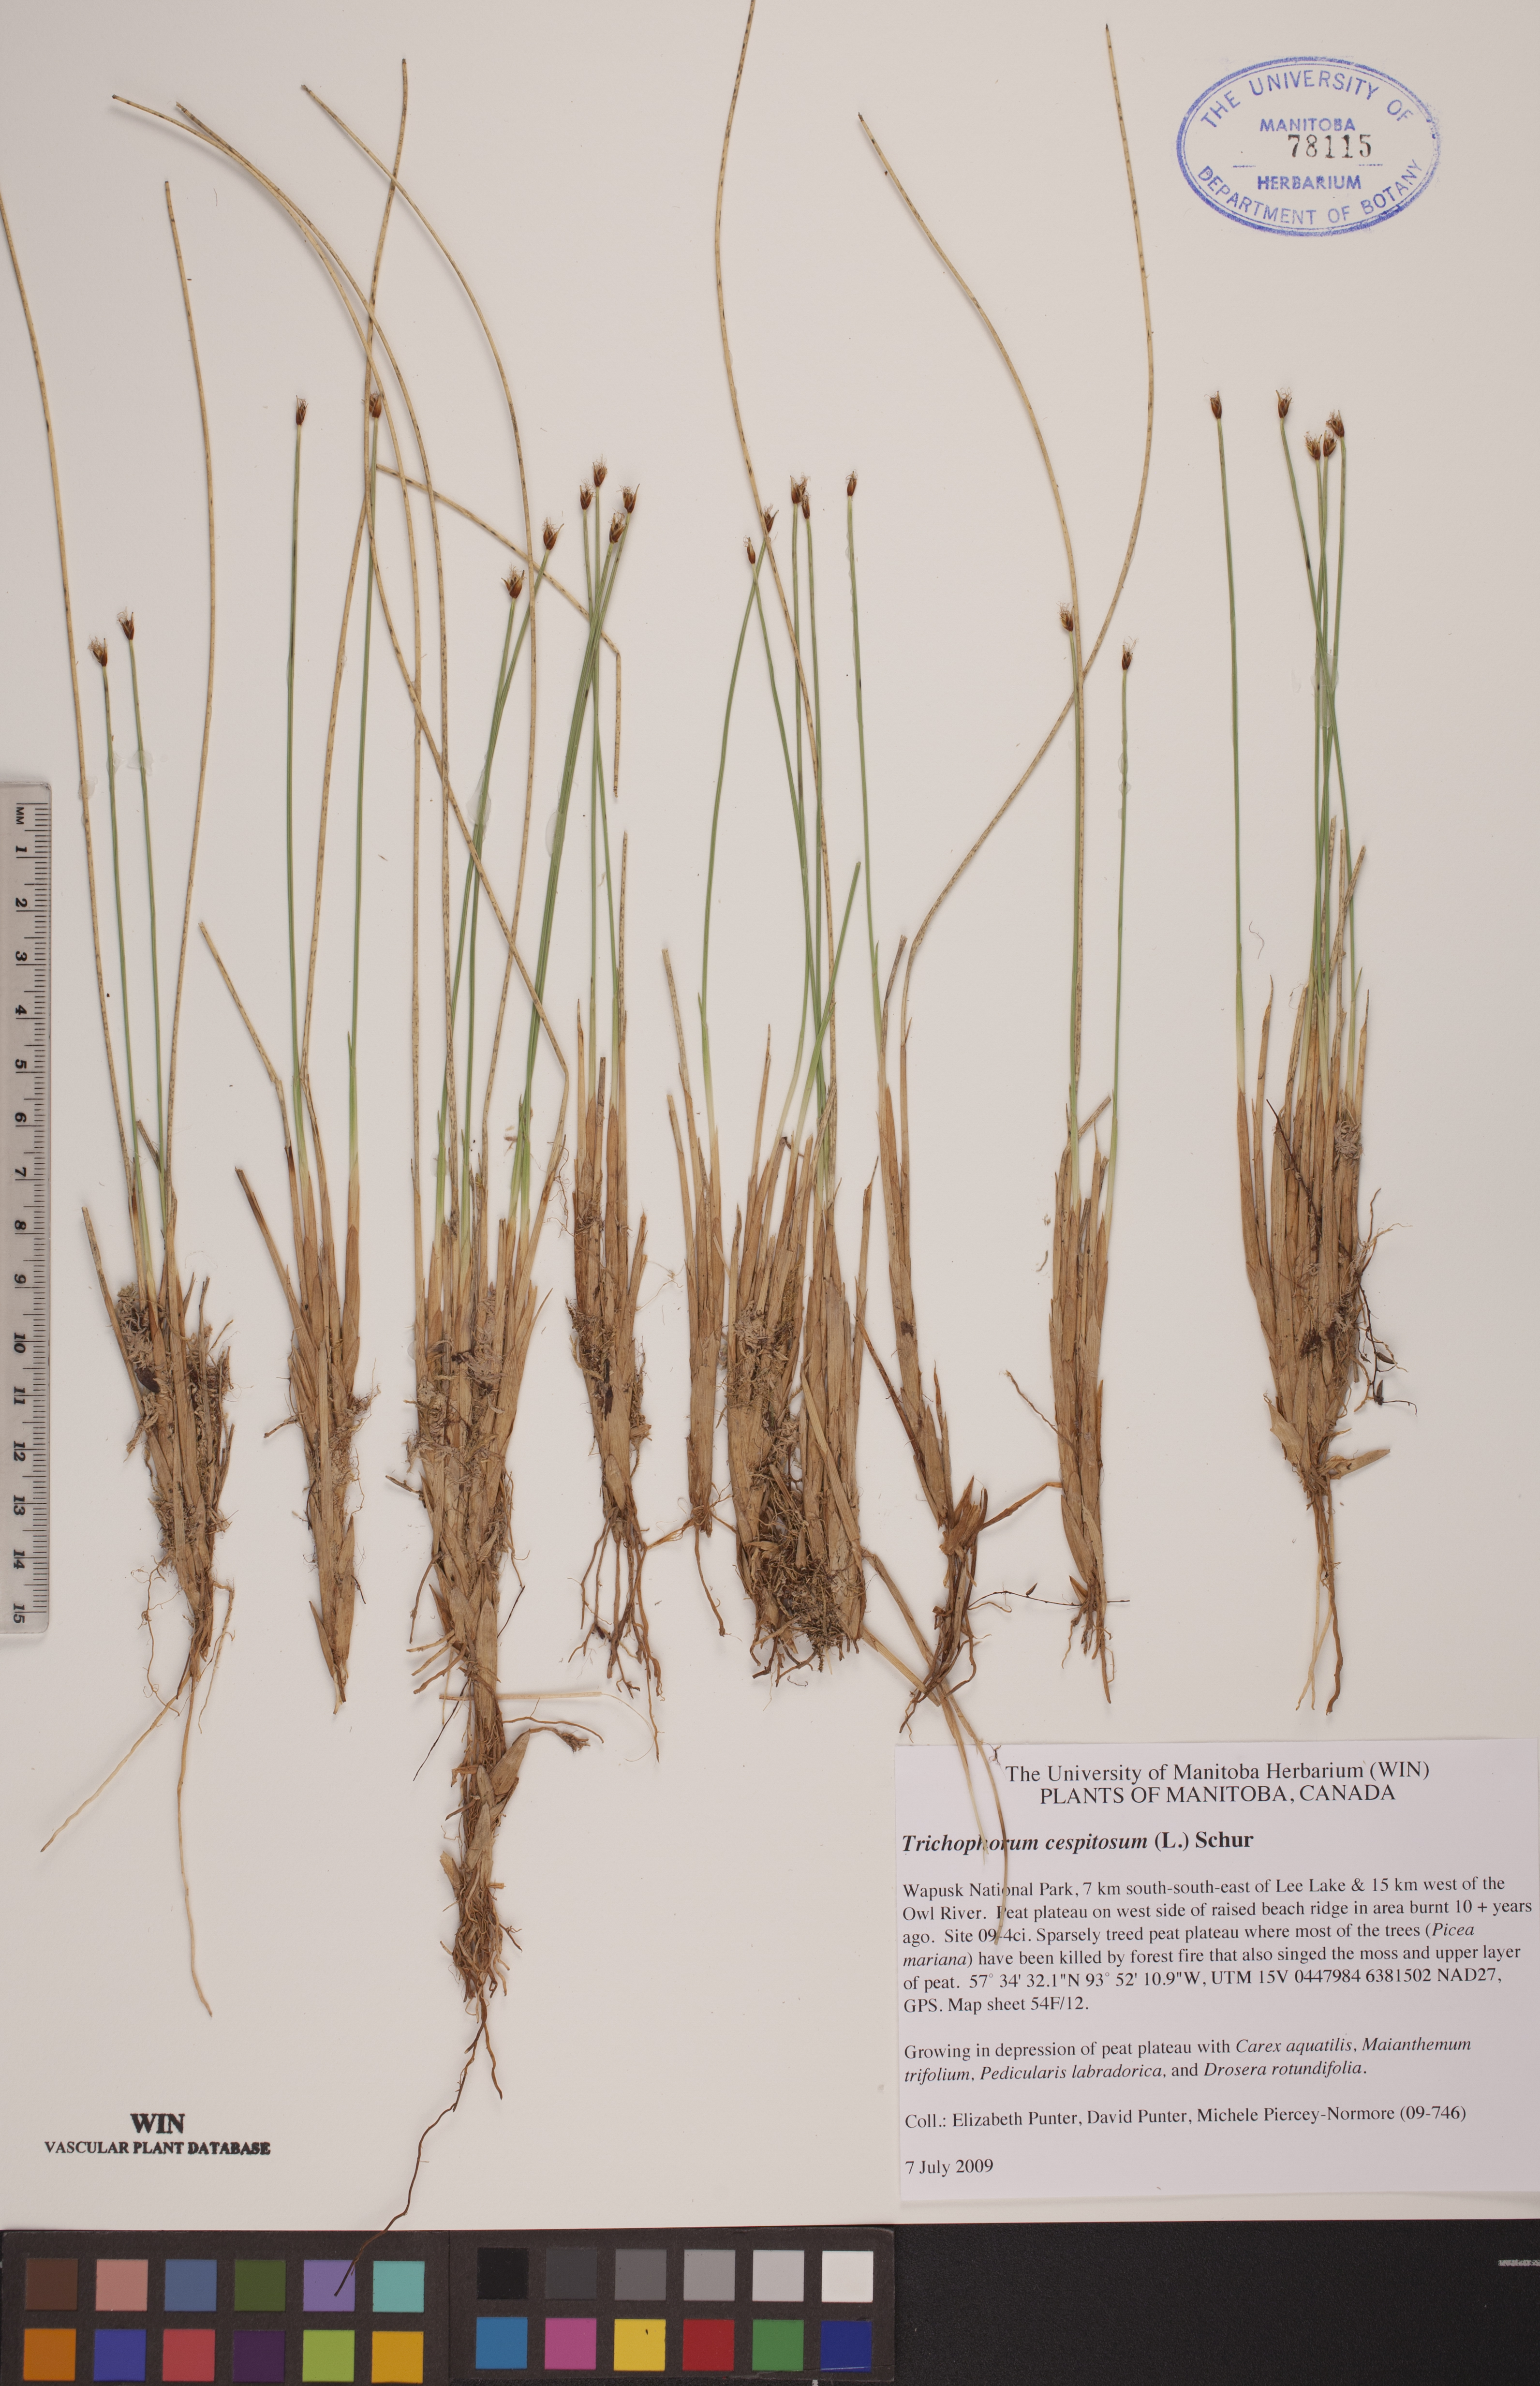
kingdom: Plantae
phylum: Tracheophyta
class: Liliopsida
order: Poales
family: Cyperaceae
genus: Trichophorum
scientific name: Trichophorum cespitosum
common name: Cespitose bulrush
